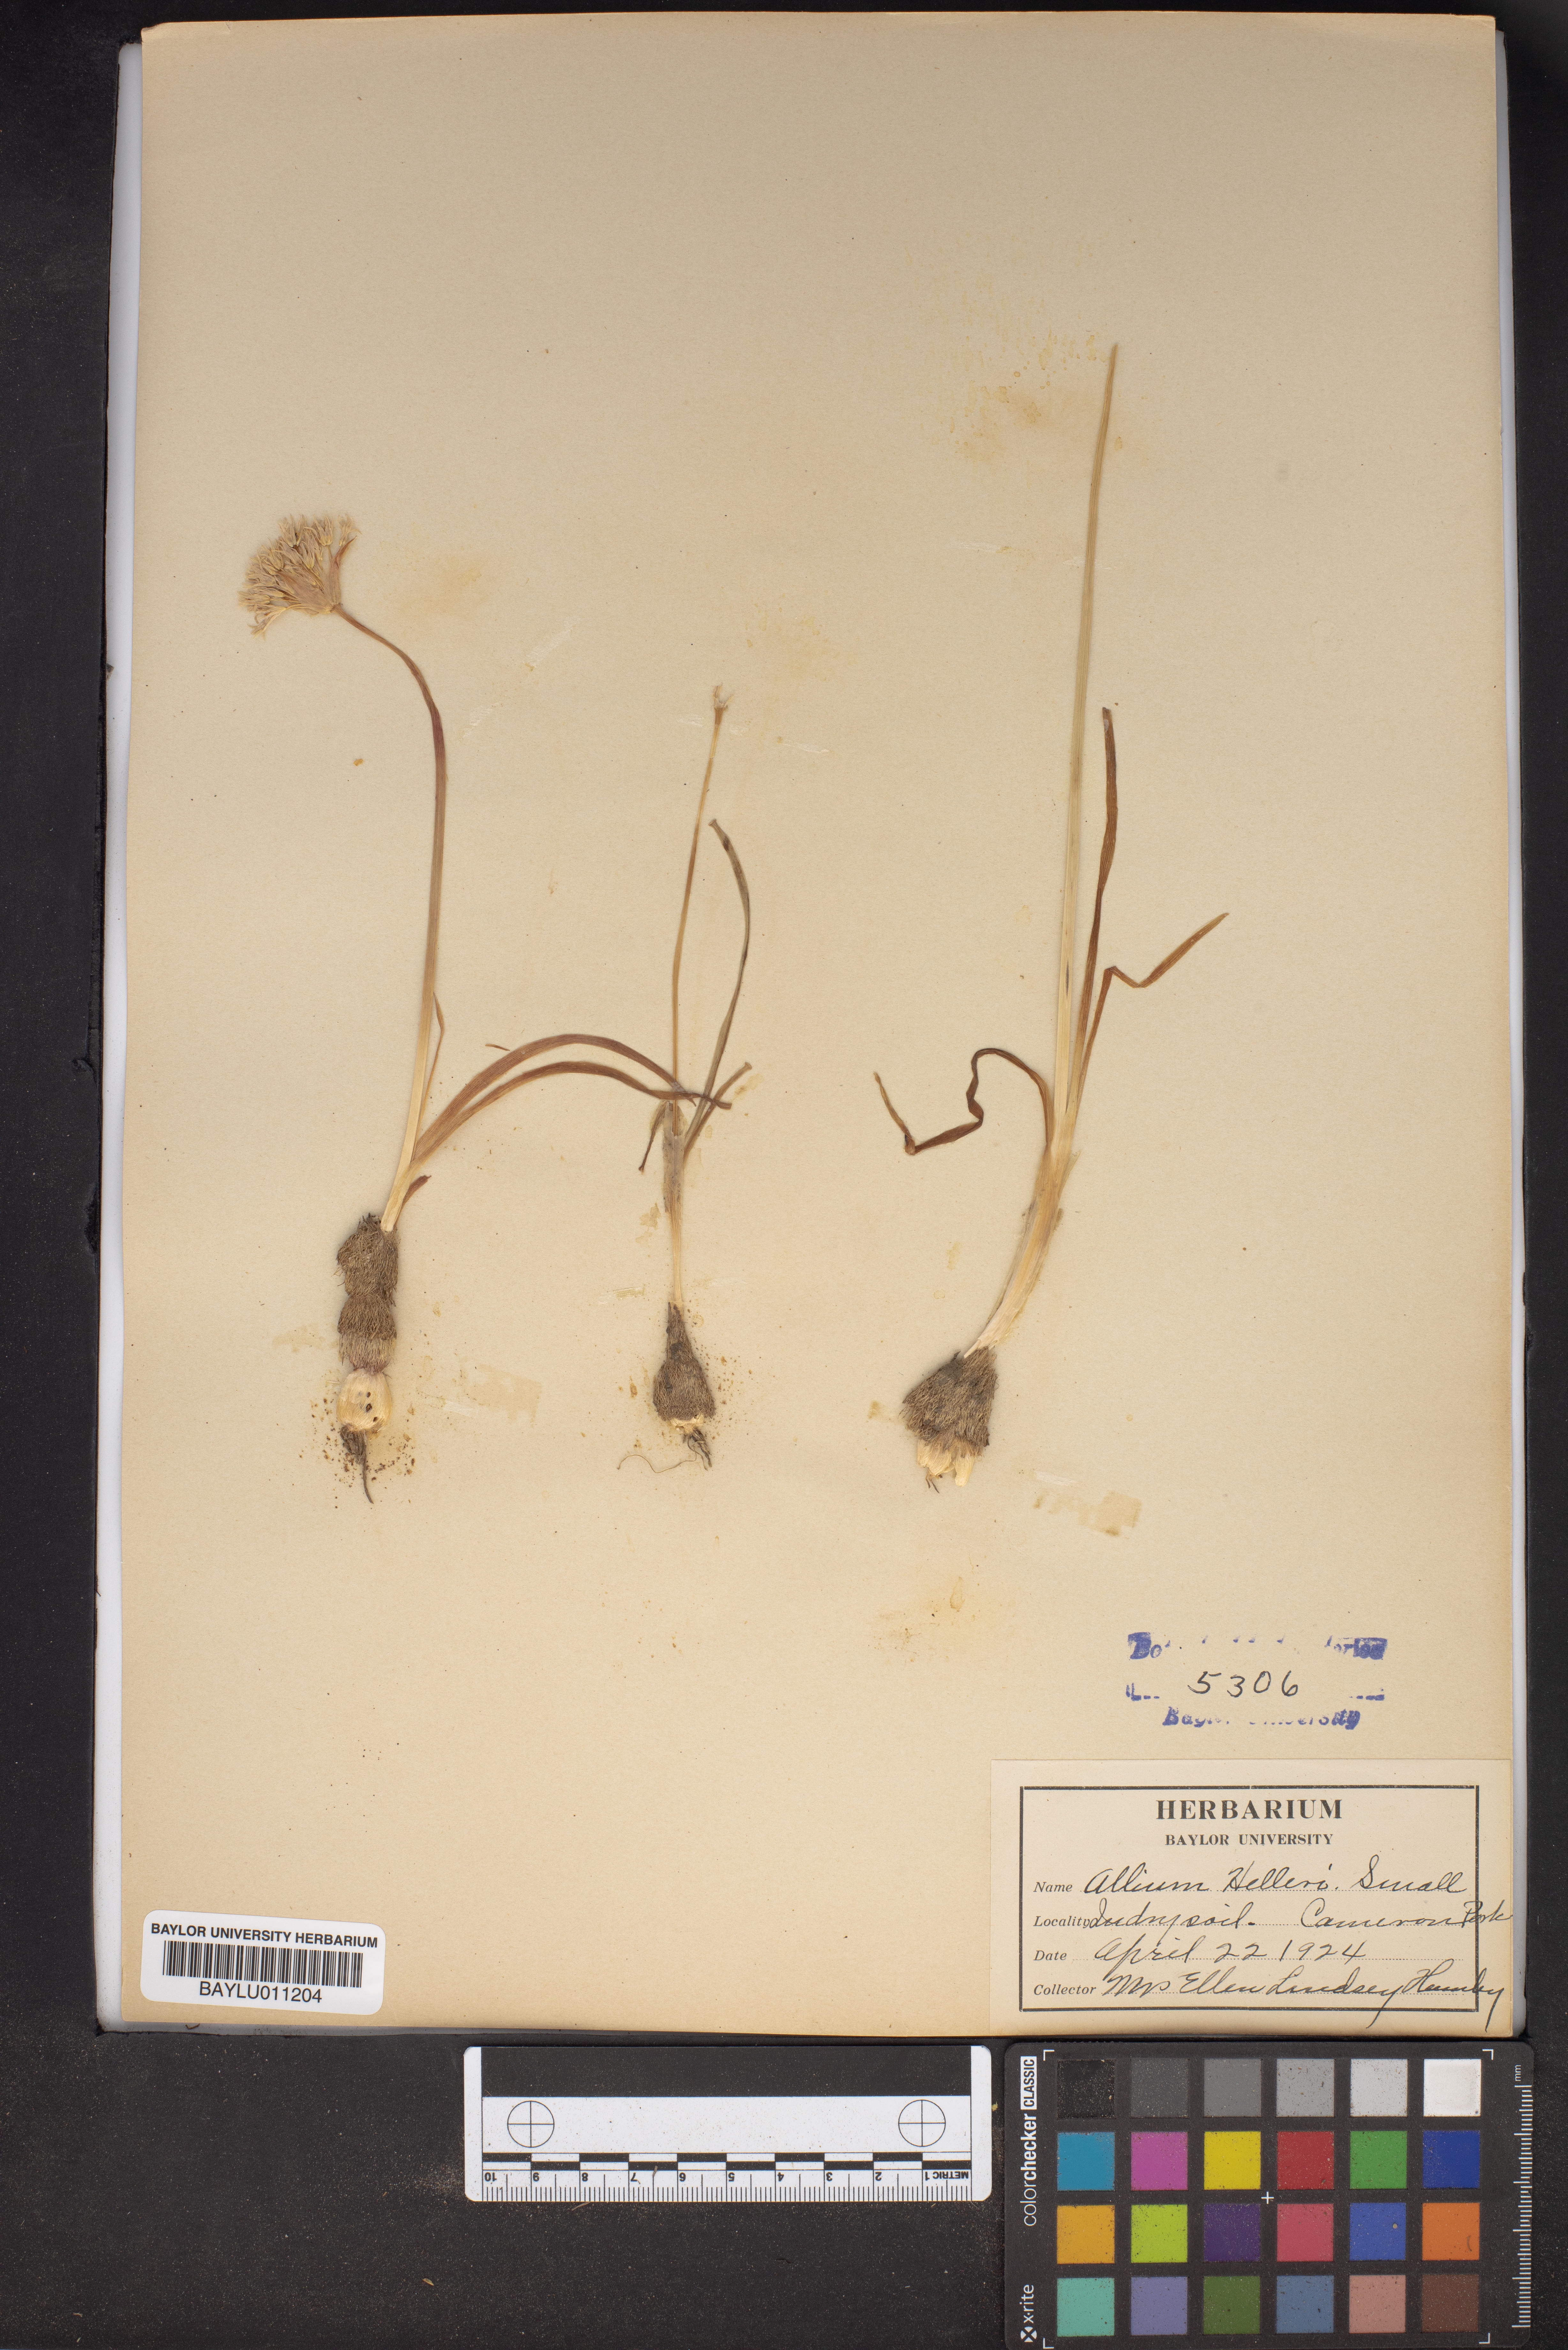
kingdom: Plantae
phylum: Tracheophyta
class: Liliopsida
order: Asparagales
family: Amaryllidaceae
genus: Allium
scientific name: Allium drummondii
